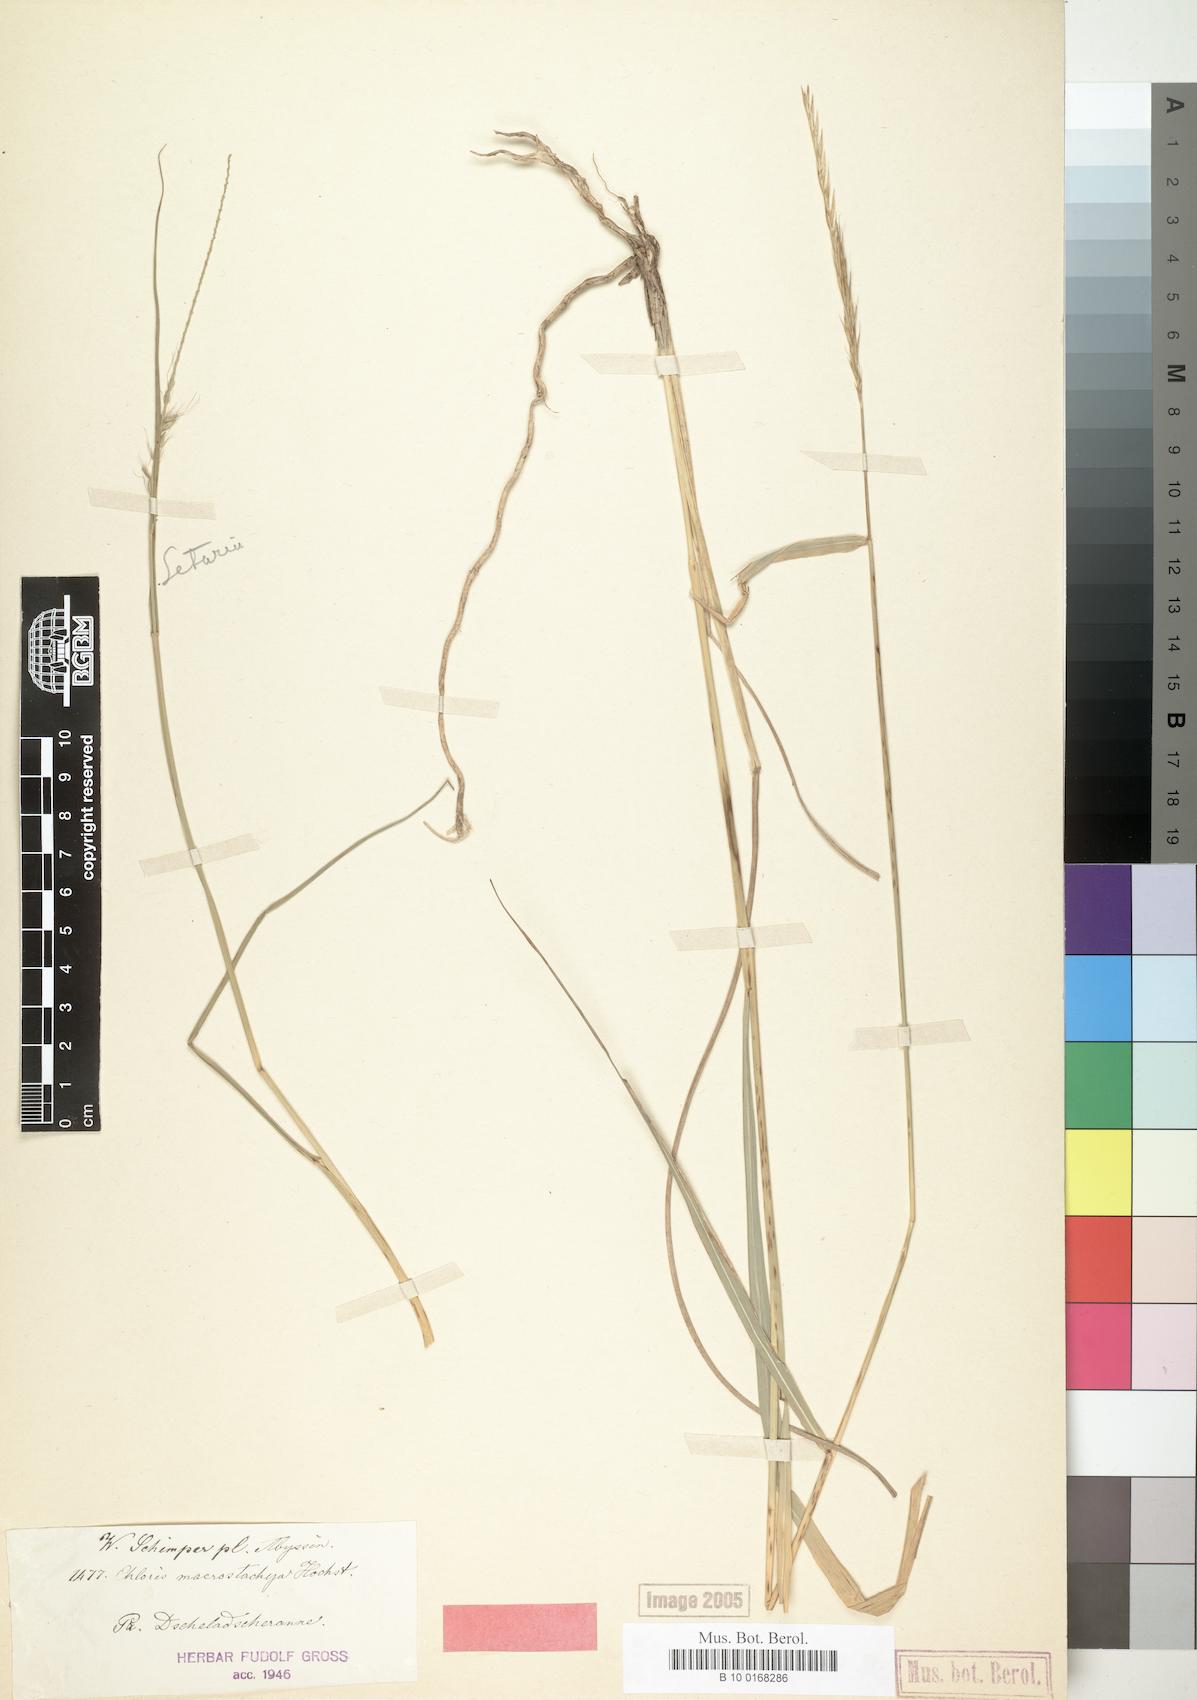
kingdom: Plantae
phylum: Tracheophyta
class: Liliopsida
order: Poales
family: Poaceae
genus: Enteropogon
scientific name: Enteropogon macrostachyus
